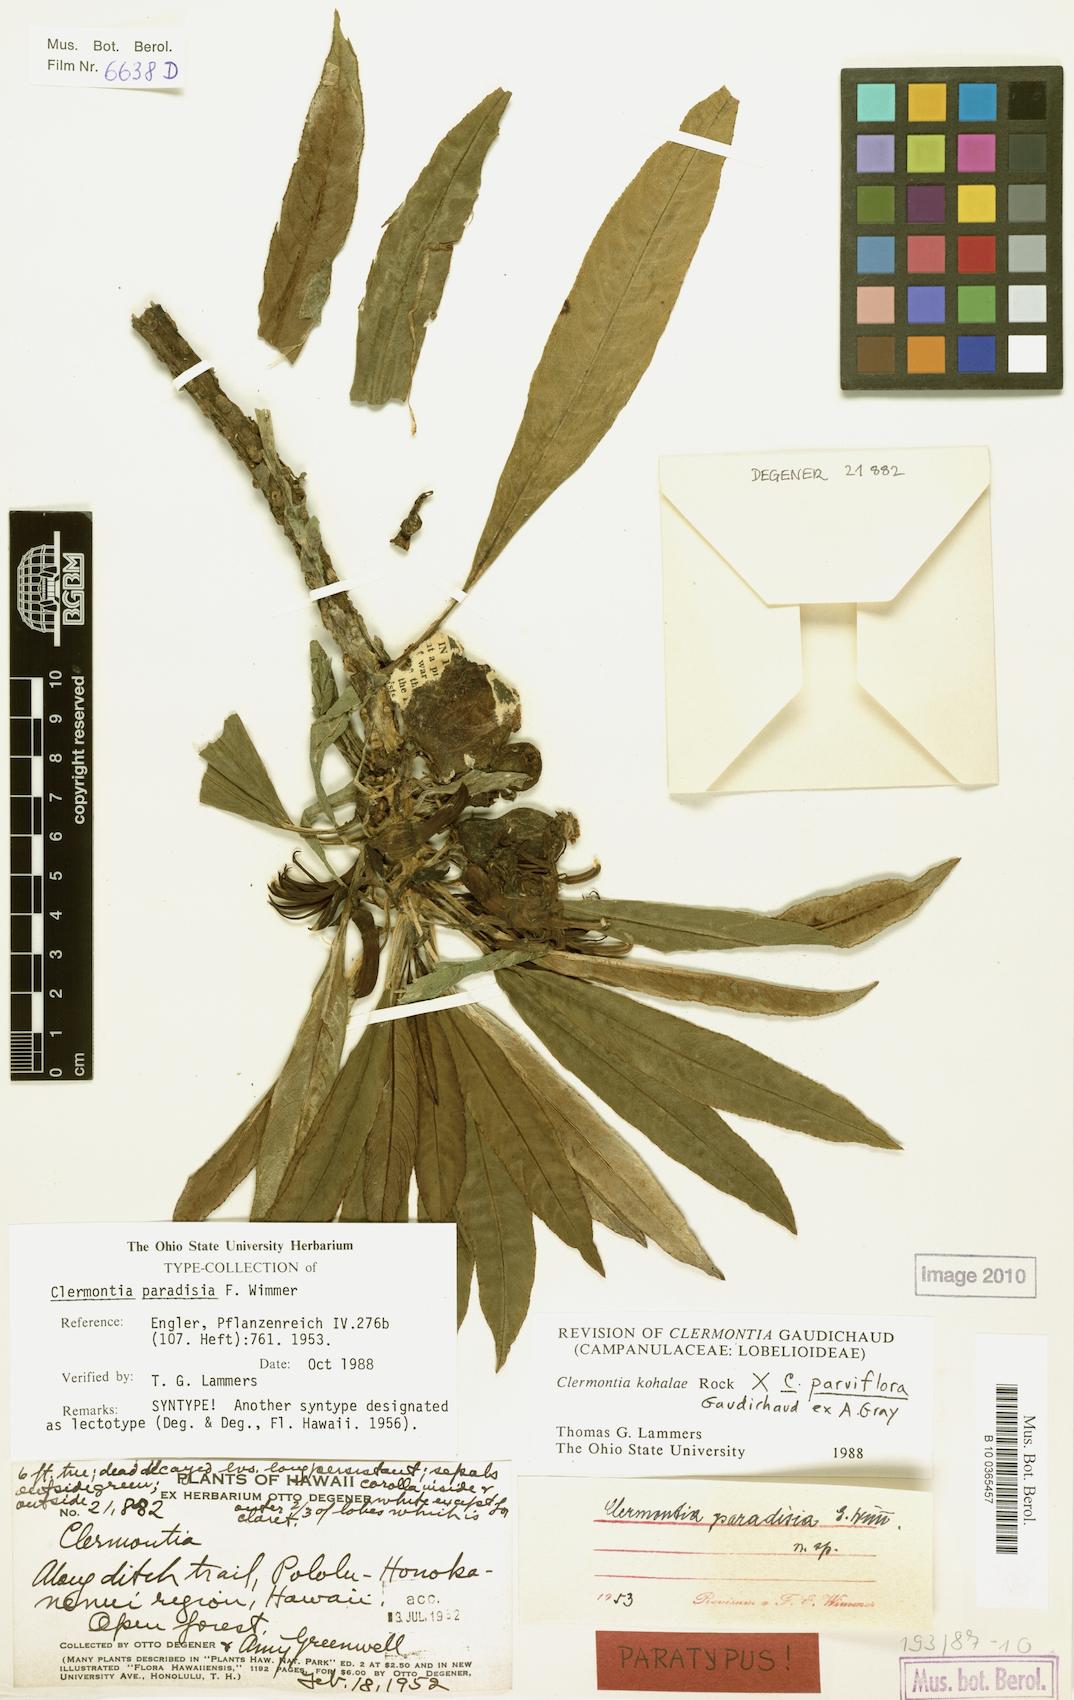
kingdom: Plantae
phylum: Tracheophyta
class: Magnoliopsida
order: Asterales
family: Campanulaceae
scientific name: Campanulaceae
